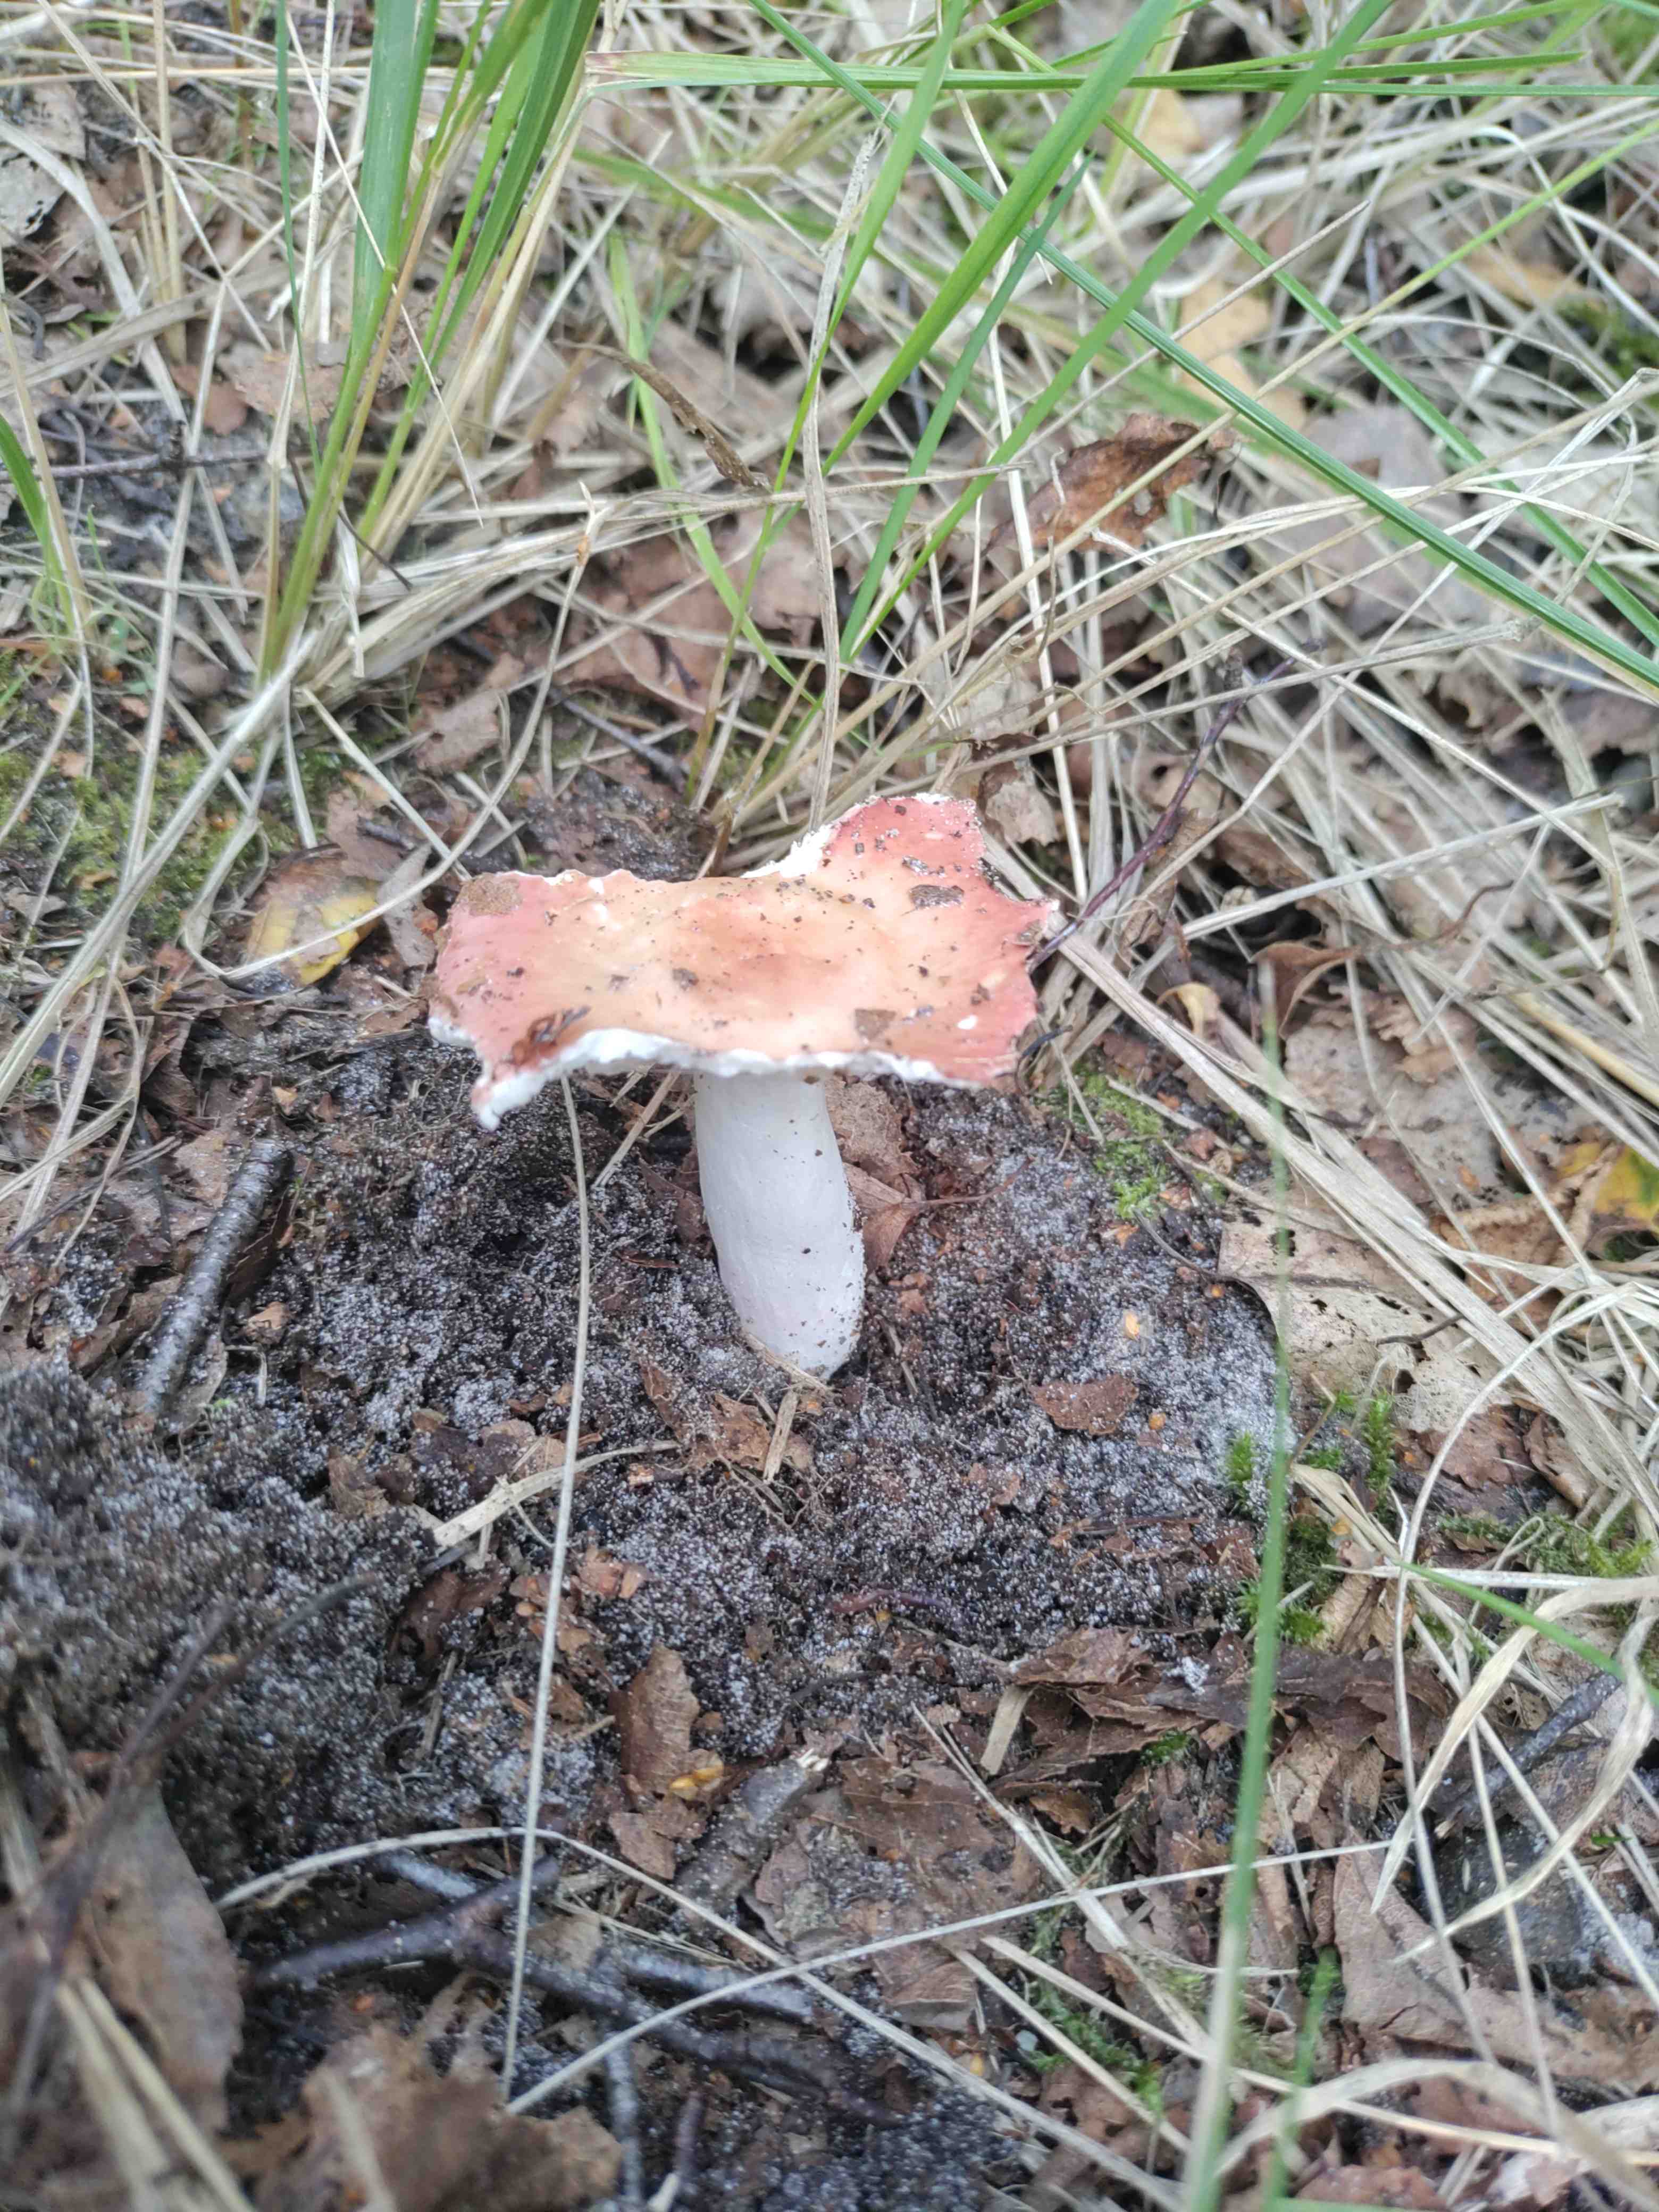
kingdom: Fungi
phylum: Basidiomycota
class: Agaricomycetes
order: Russulales
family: Russulaceae
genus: Russula
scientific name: Russula
